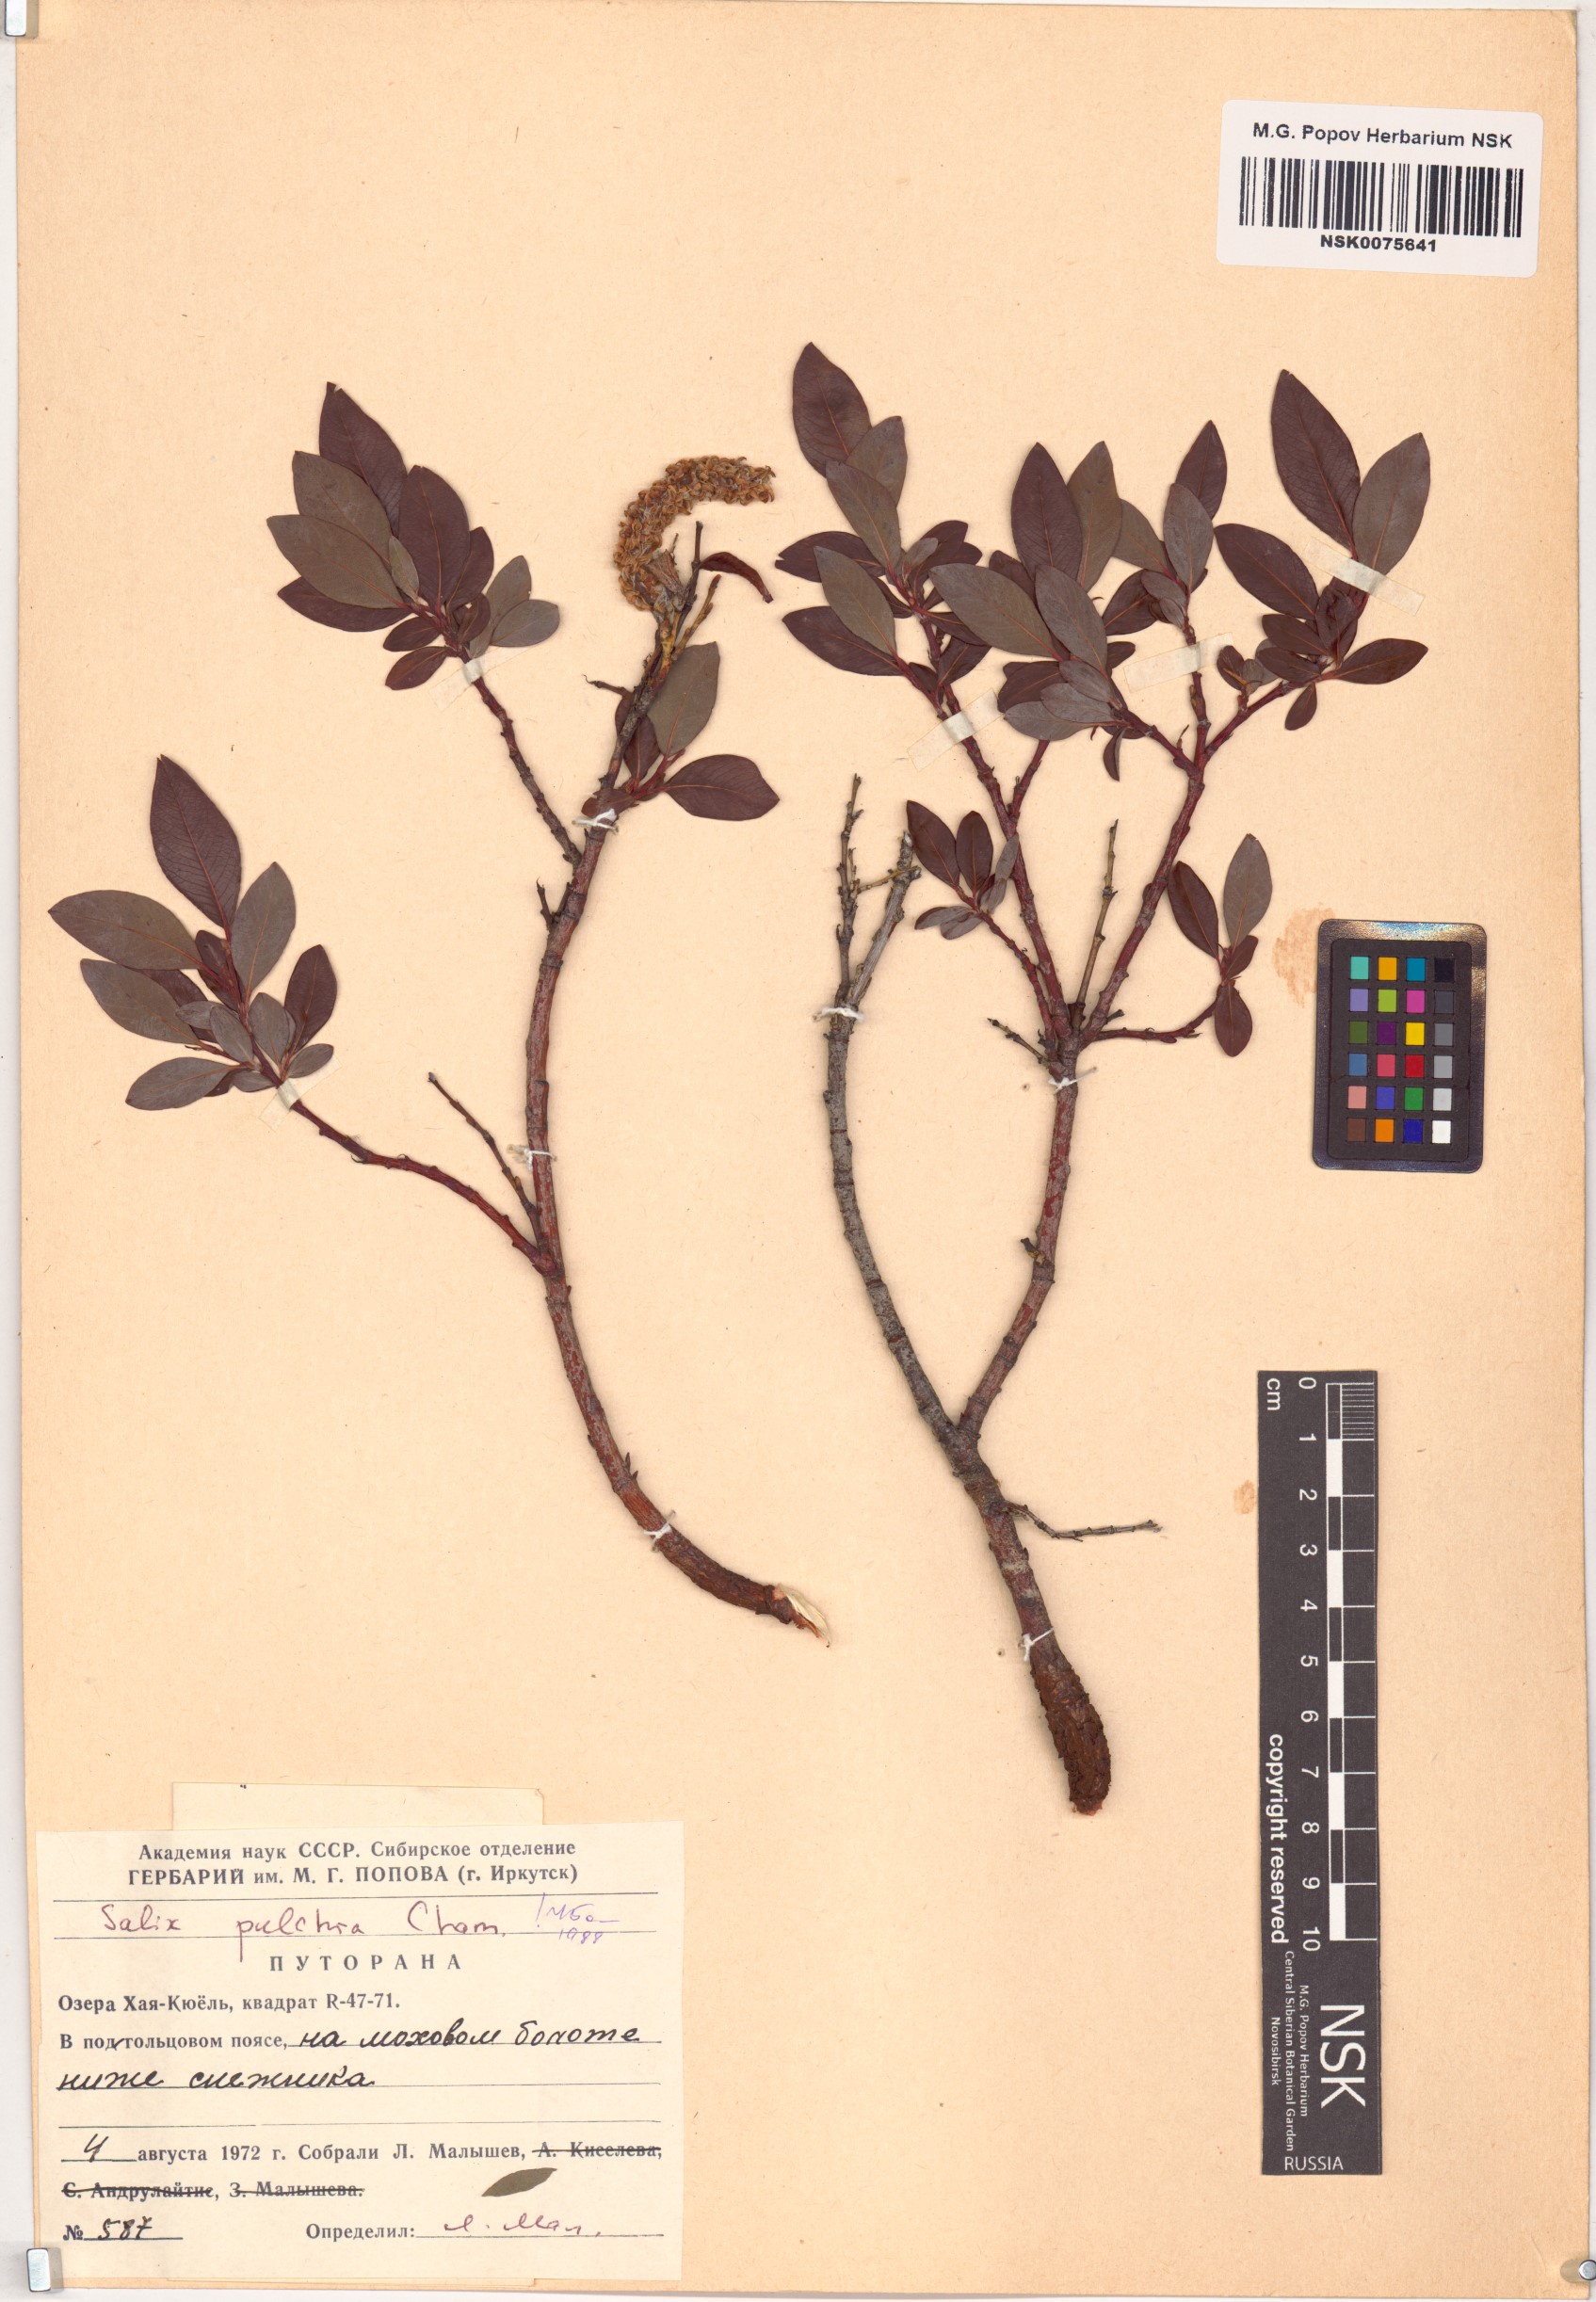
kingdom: Plantae
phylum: Tracheophyta
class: Magnoliopsida
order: Malpighiales
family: Salicaceae
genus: Salix
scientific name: Salix pulchra
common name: Diamond-leaved willow
